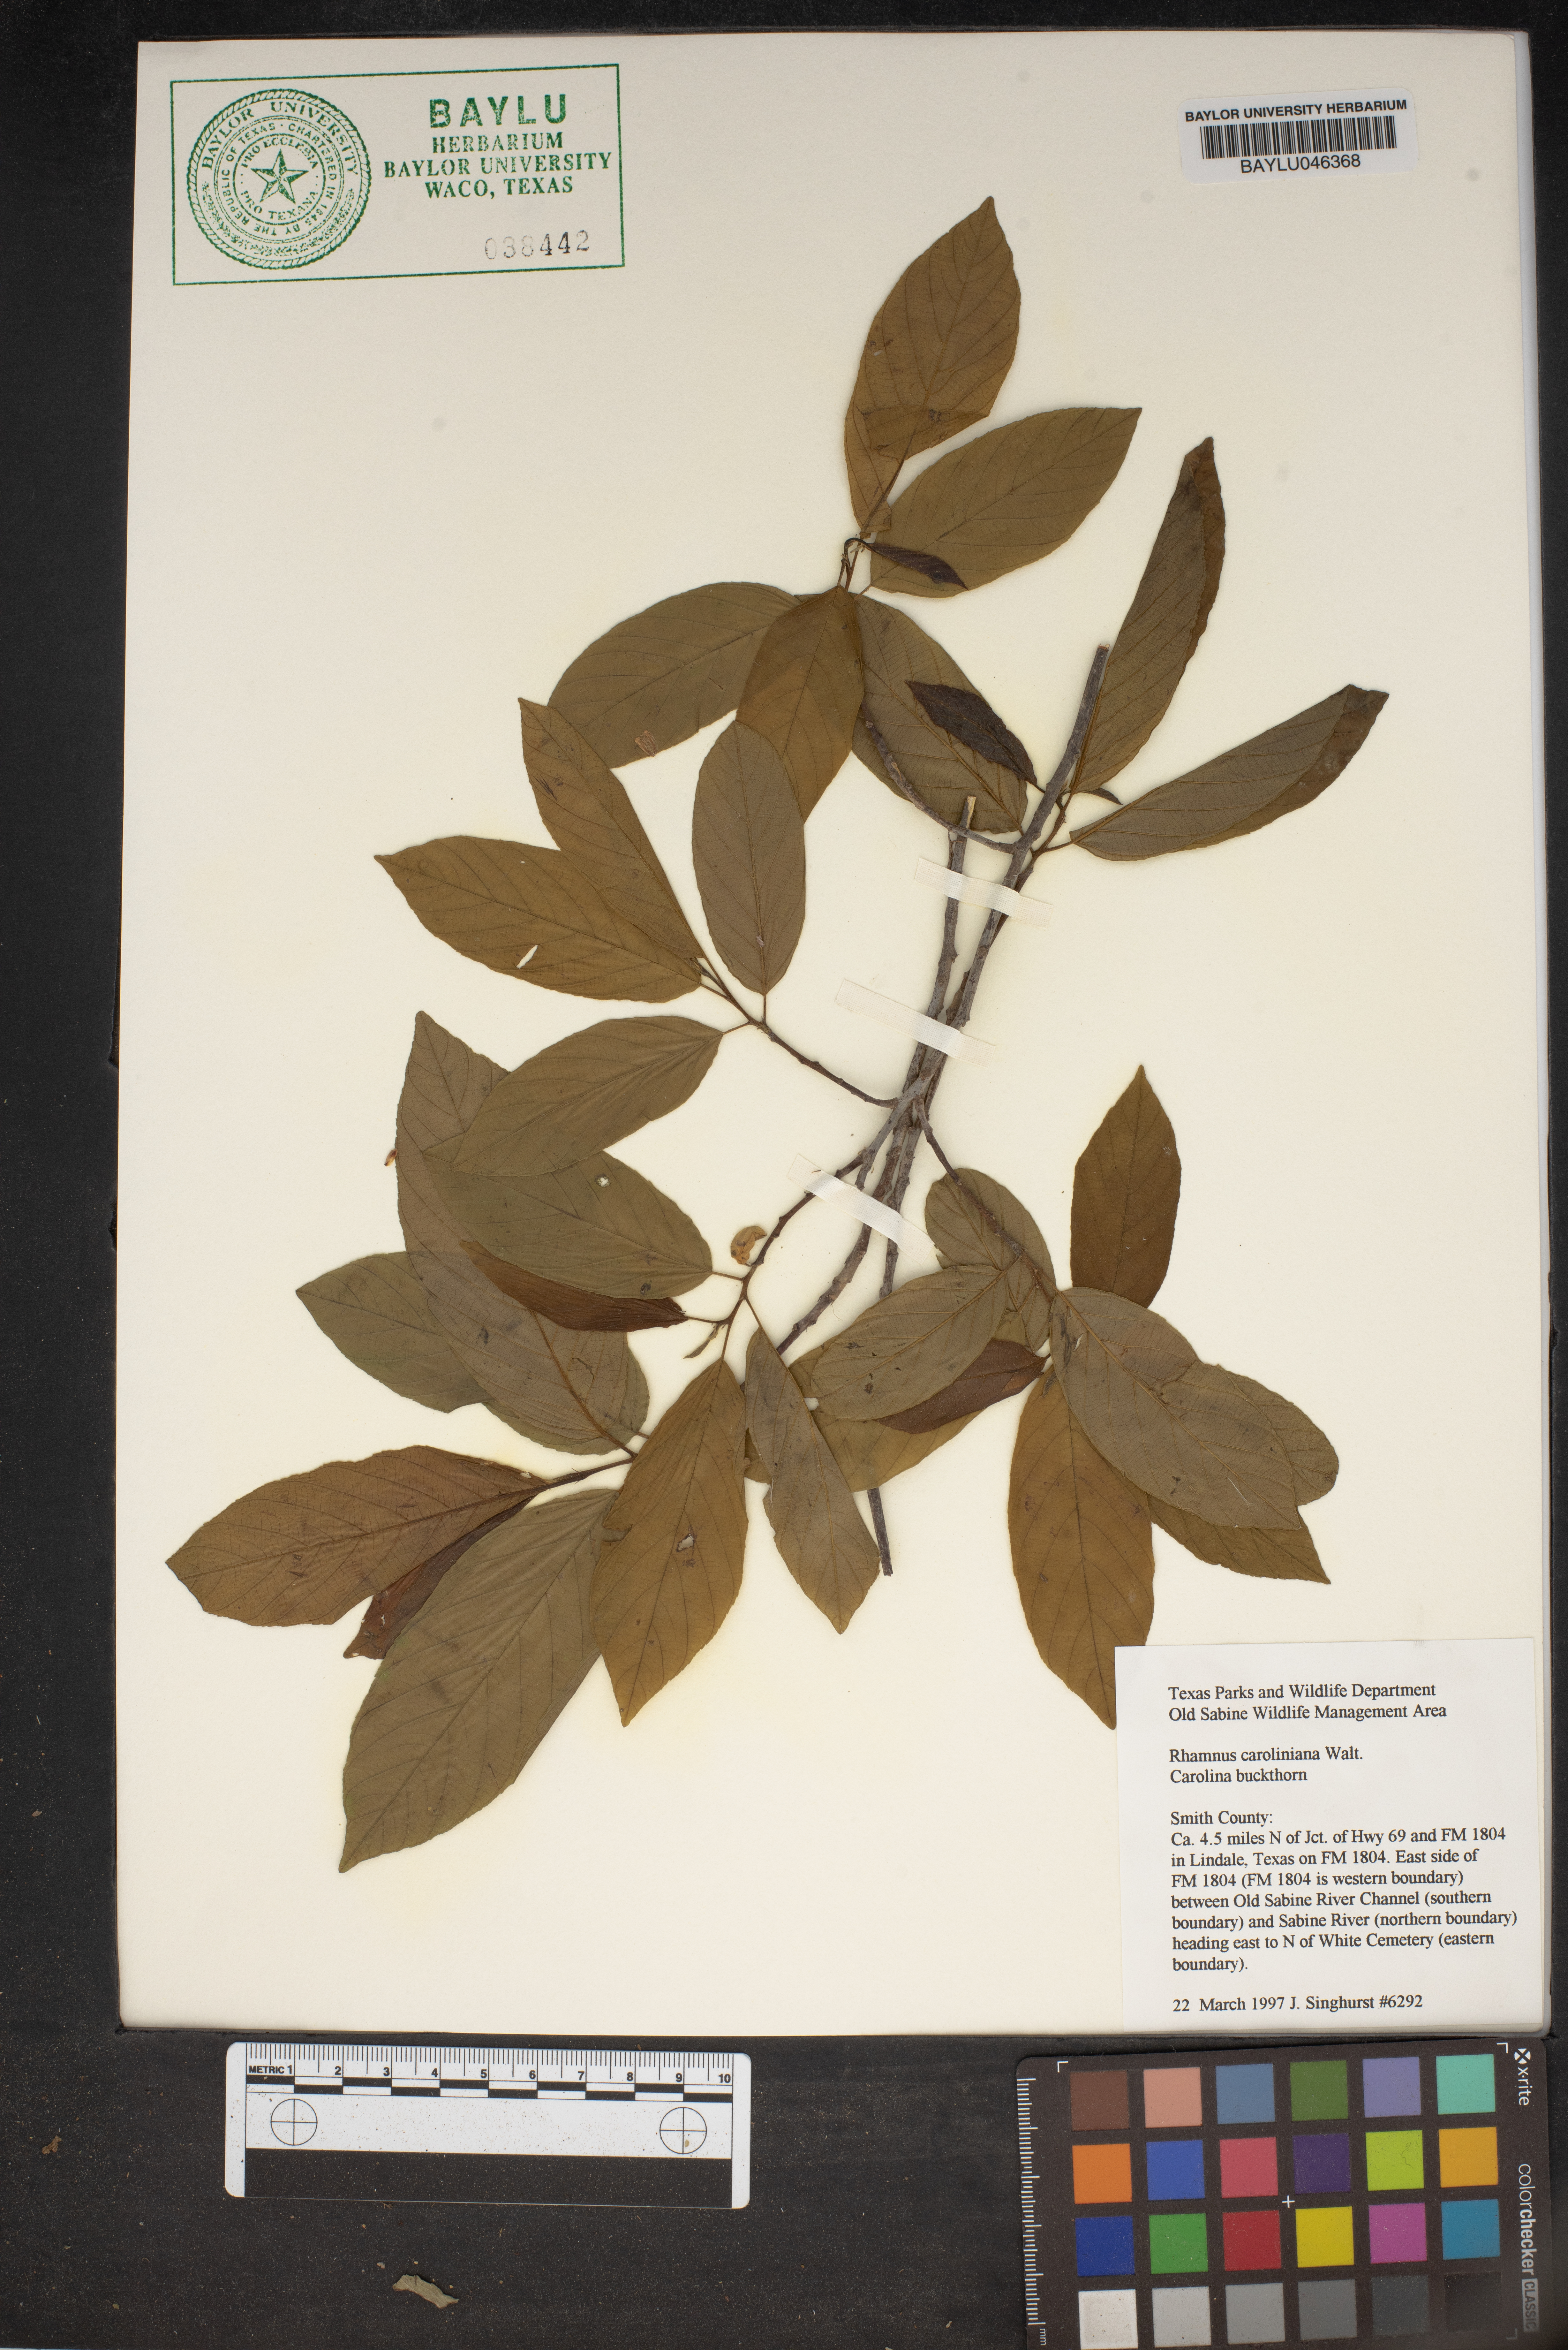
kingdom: Plantae
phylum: Tracheophyta
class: Magnoliopsida
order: Rosales
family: Rhamnaceae
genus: Frangula
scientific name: Frangula caroliniana
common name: Carolina buckthorn
